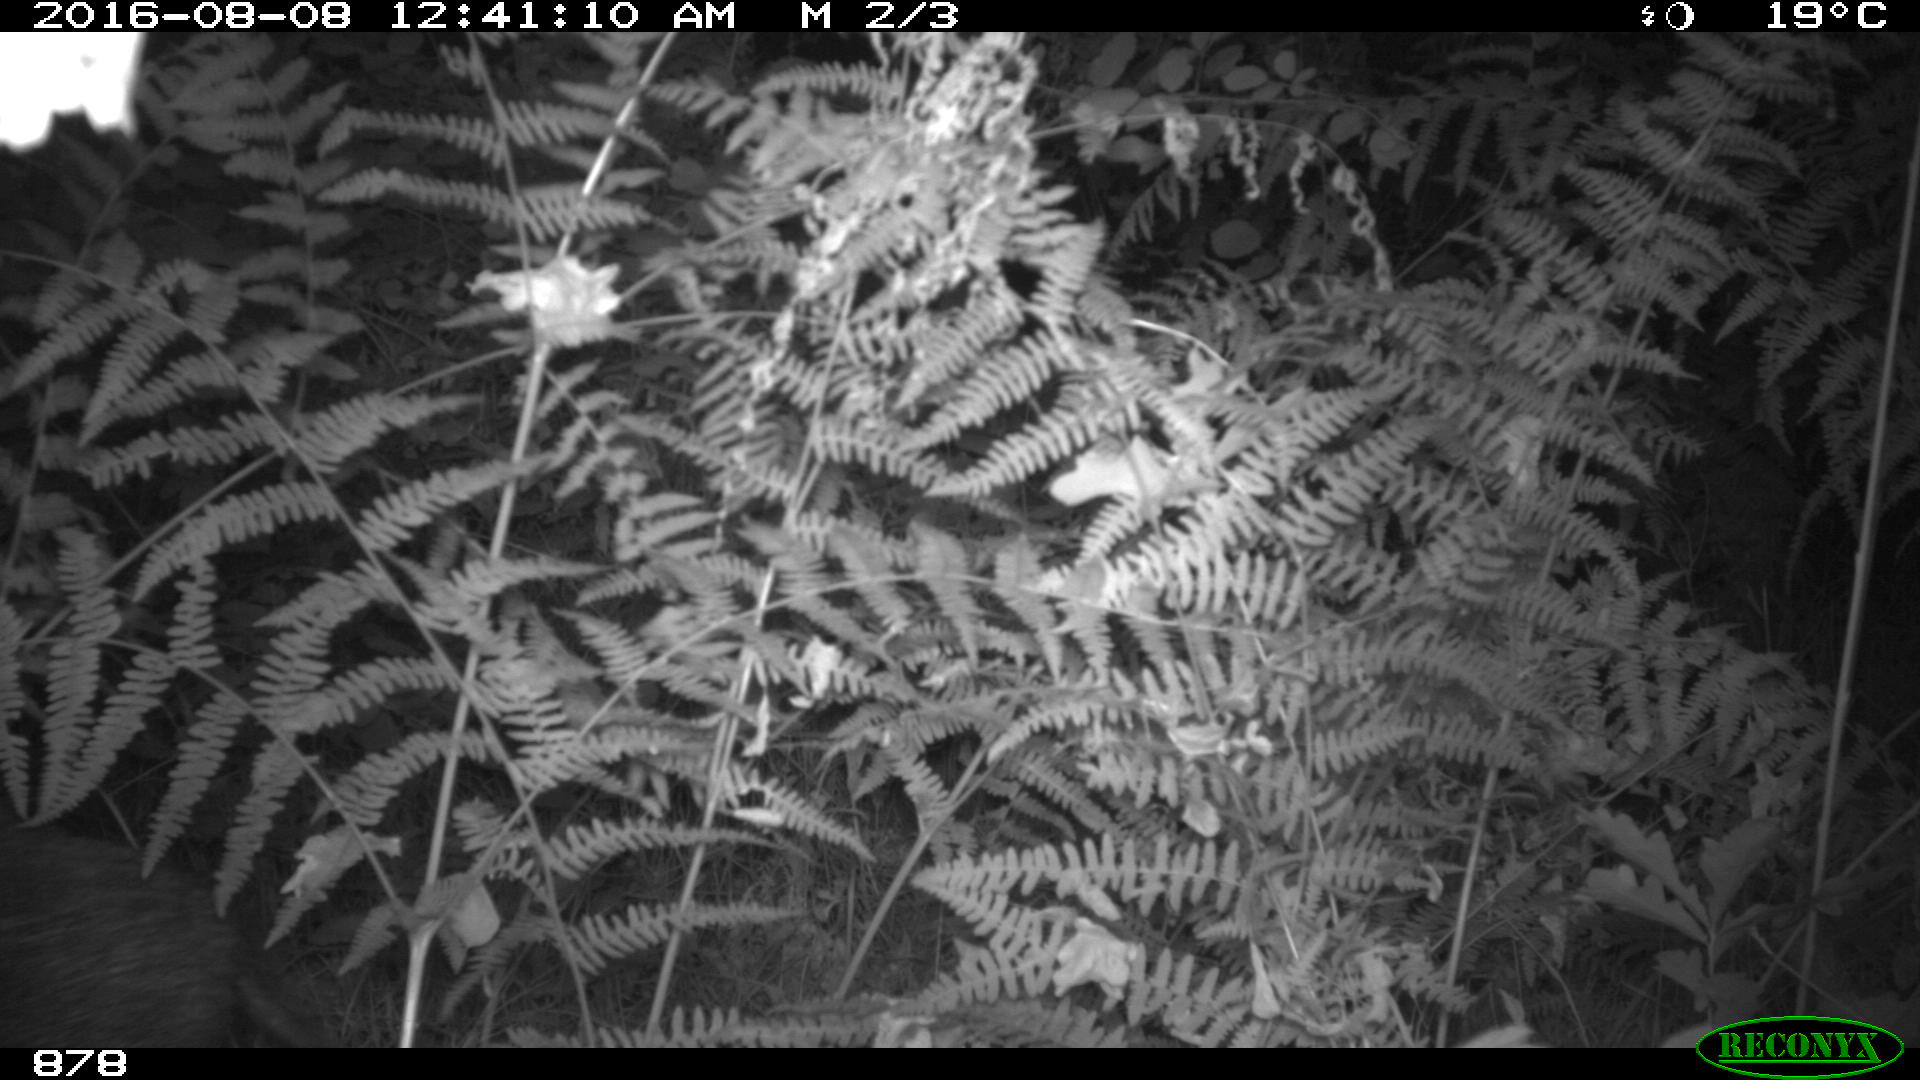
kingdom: Animalia
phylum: Chordata
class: Mammalia
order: Artiodactyla
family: Suidae
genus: Sus
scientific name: Sus scrofa
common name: Wild boar
